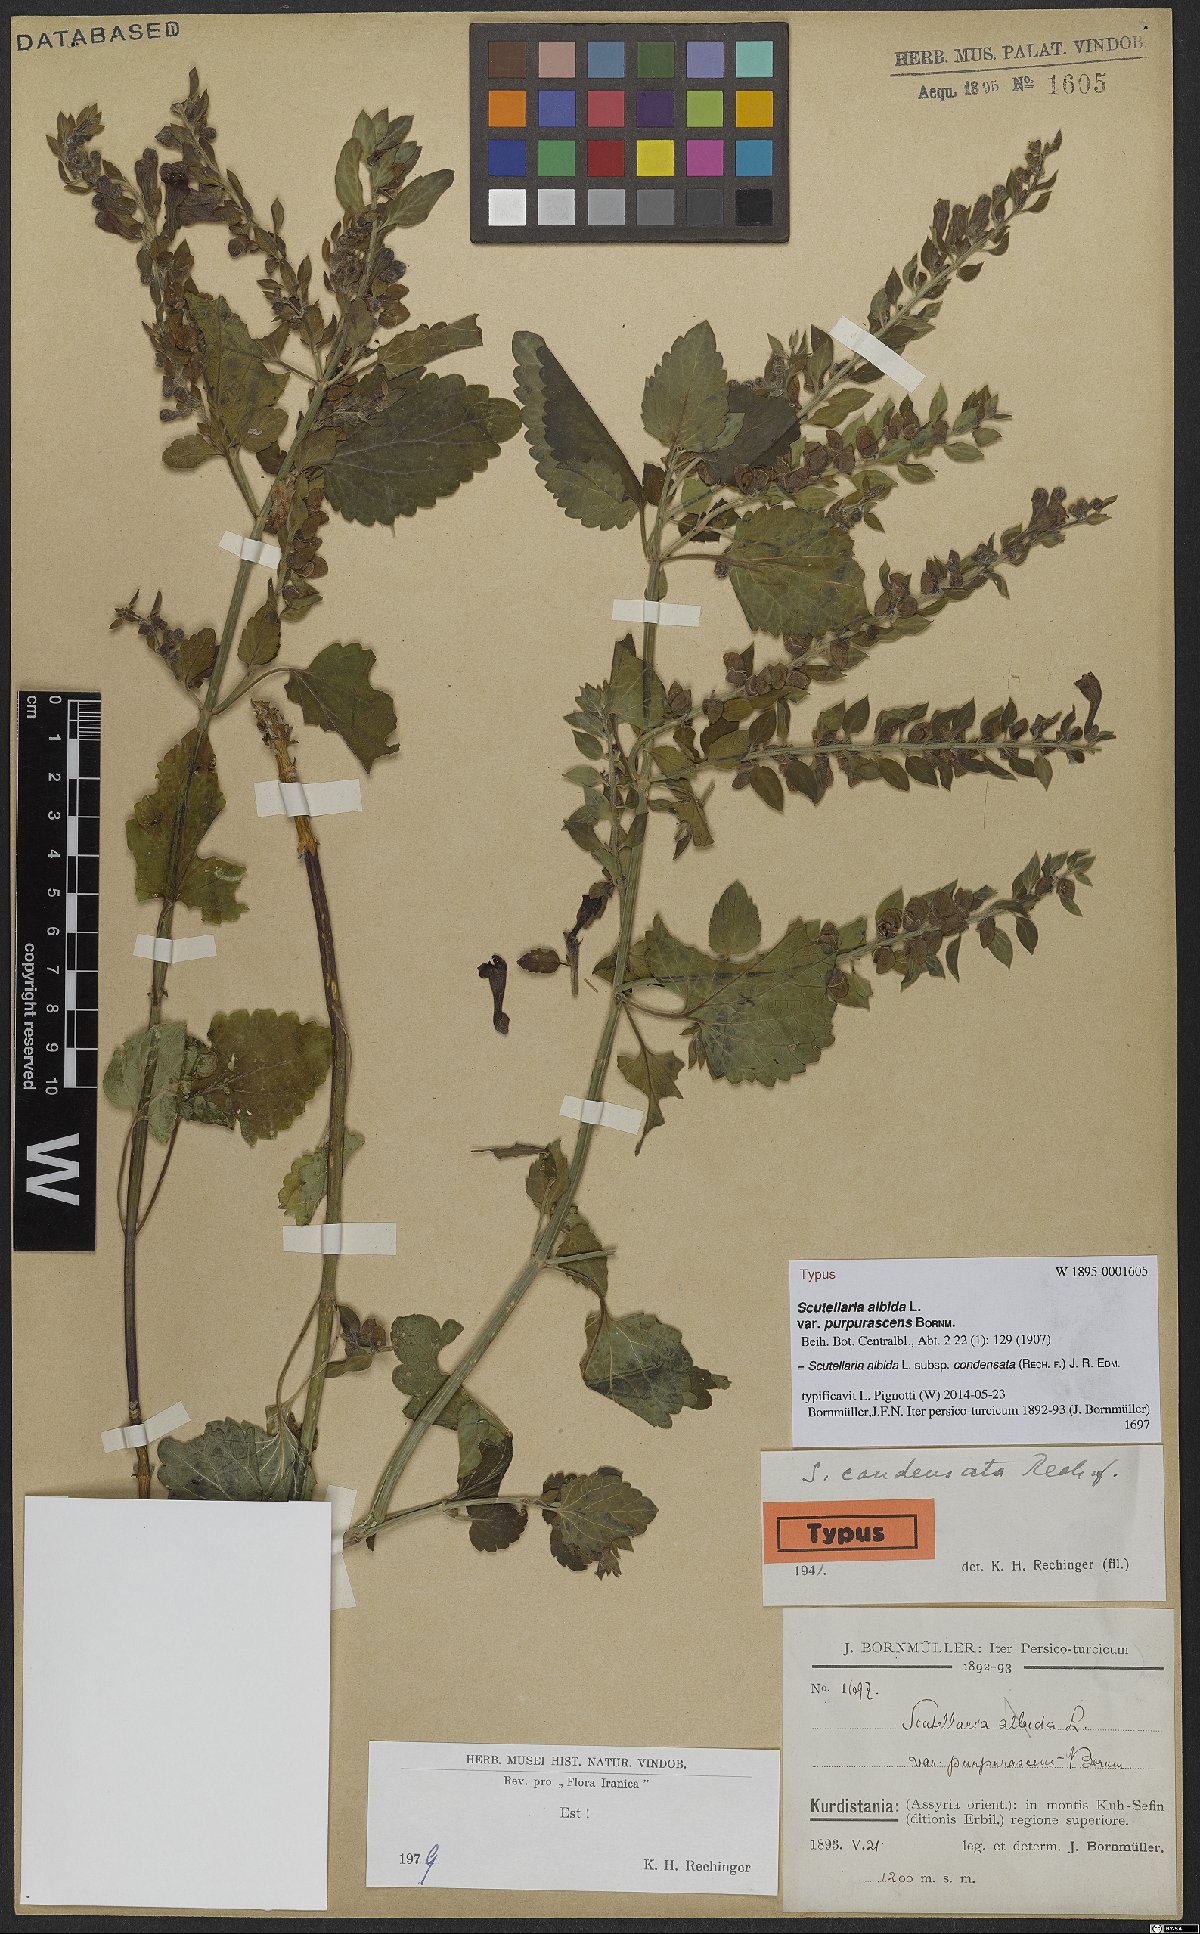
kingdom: Plantae
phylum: Tracheophyta
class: Magnoliopsida
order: Lamiales
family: Lamiaceae
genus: Scutellaria
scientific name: Scutellaria albida
